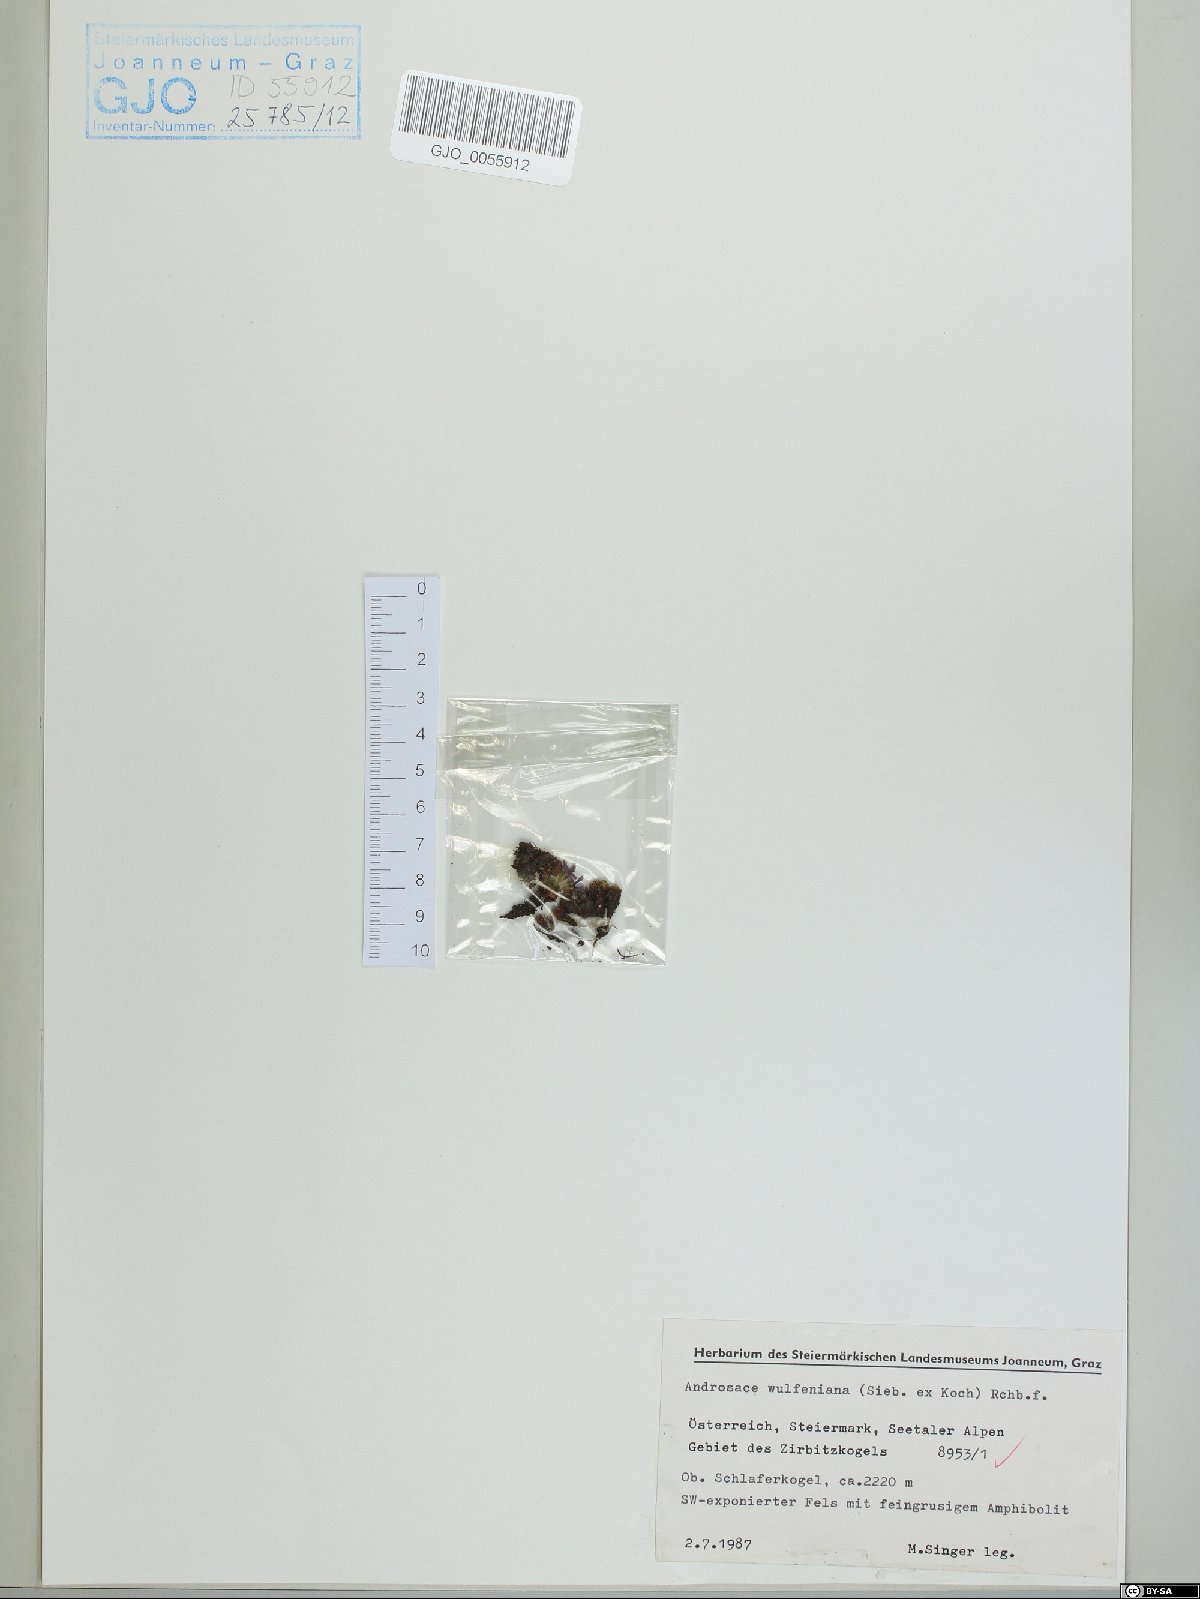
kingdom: Plantae
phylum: Tracheophyta
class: Magnoliopsida
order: Ericales
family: Primulaceae
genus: Androsace
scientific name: Androsace wulfeniana
